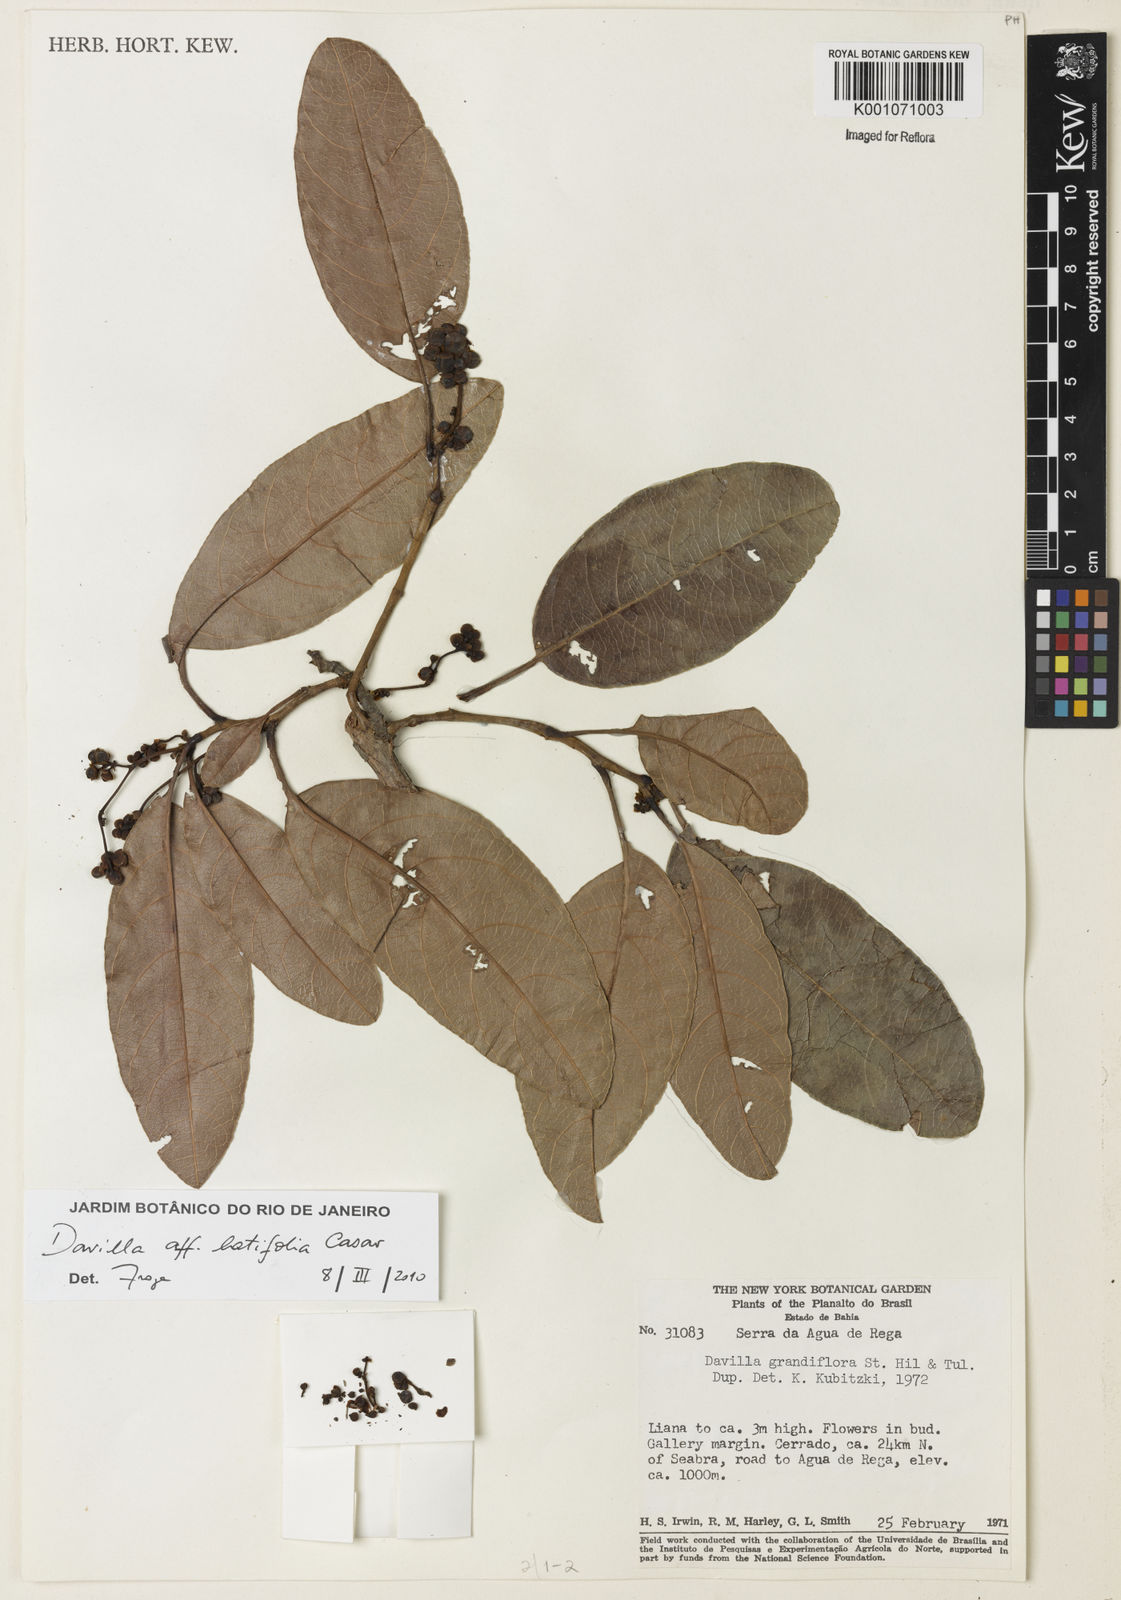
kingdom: Plantae
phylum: Tracheophyta
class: Magnoliopsida
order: Dilleniales
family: Dilleniaceae
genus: Davilla
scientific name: Davilla latifolia
